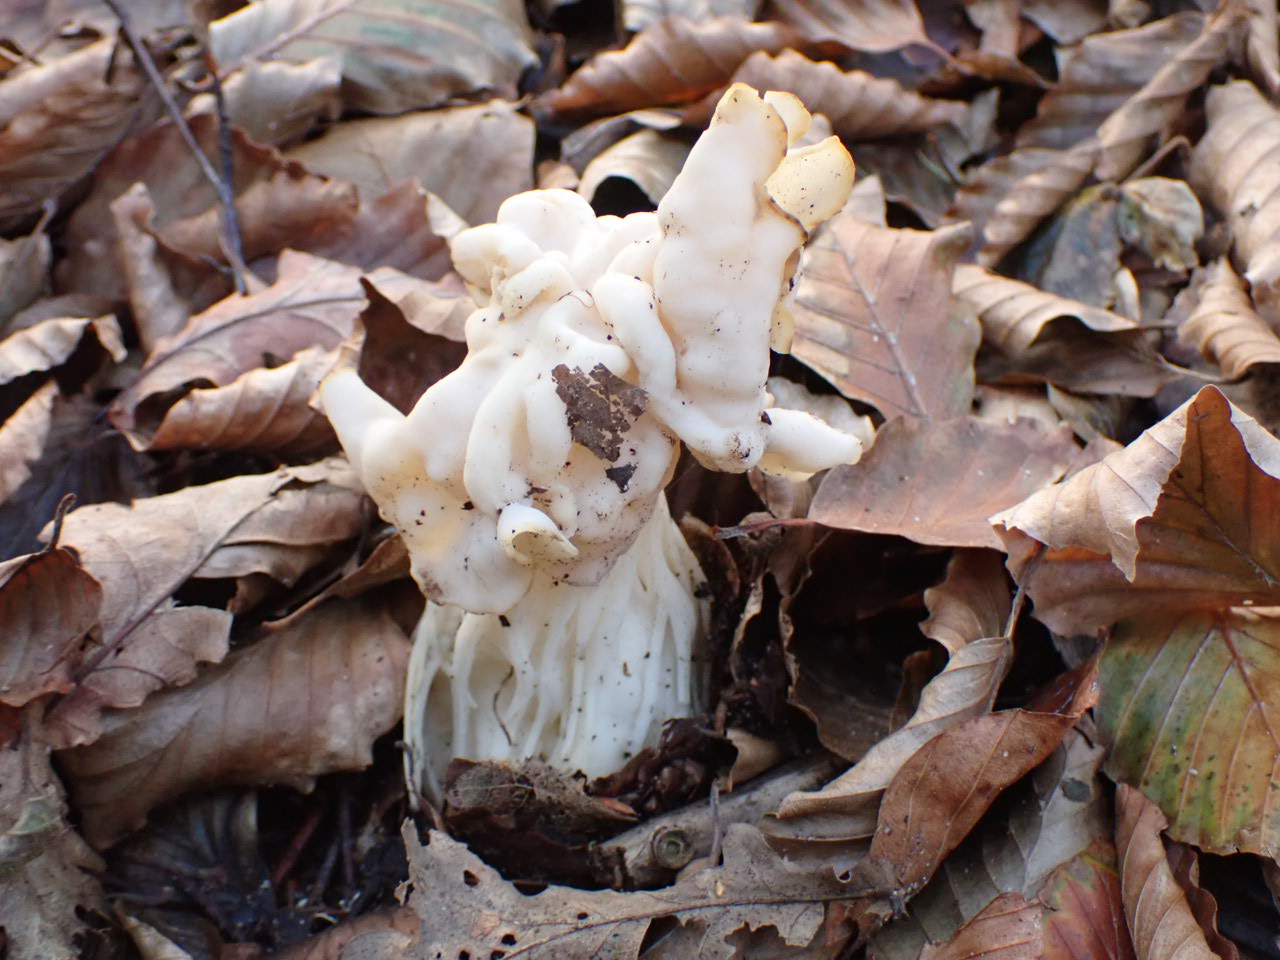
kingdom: Fungi
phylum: Ascomycota
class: Pezizomycetes
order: Pezizales
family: Helvellaceae
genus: Helvella
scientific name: Helvella crispa
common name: kruset foldhat
